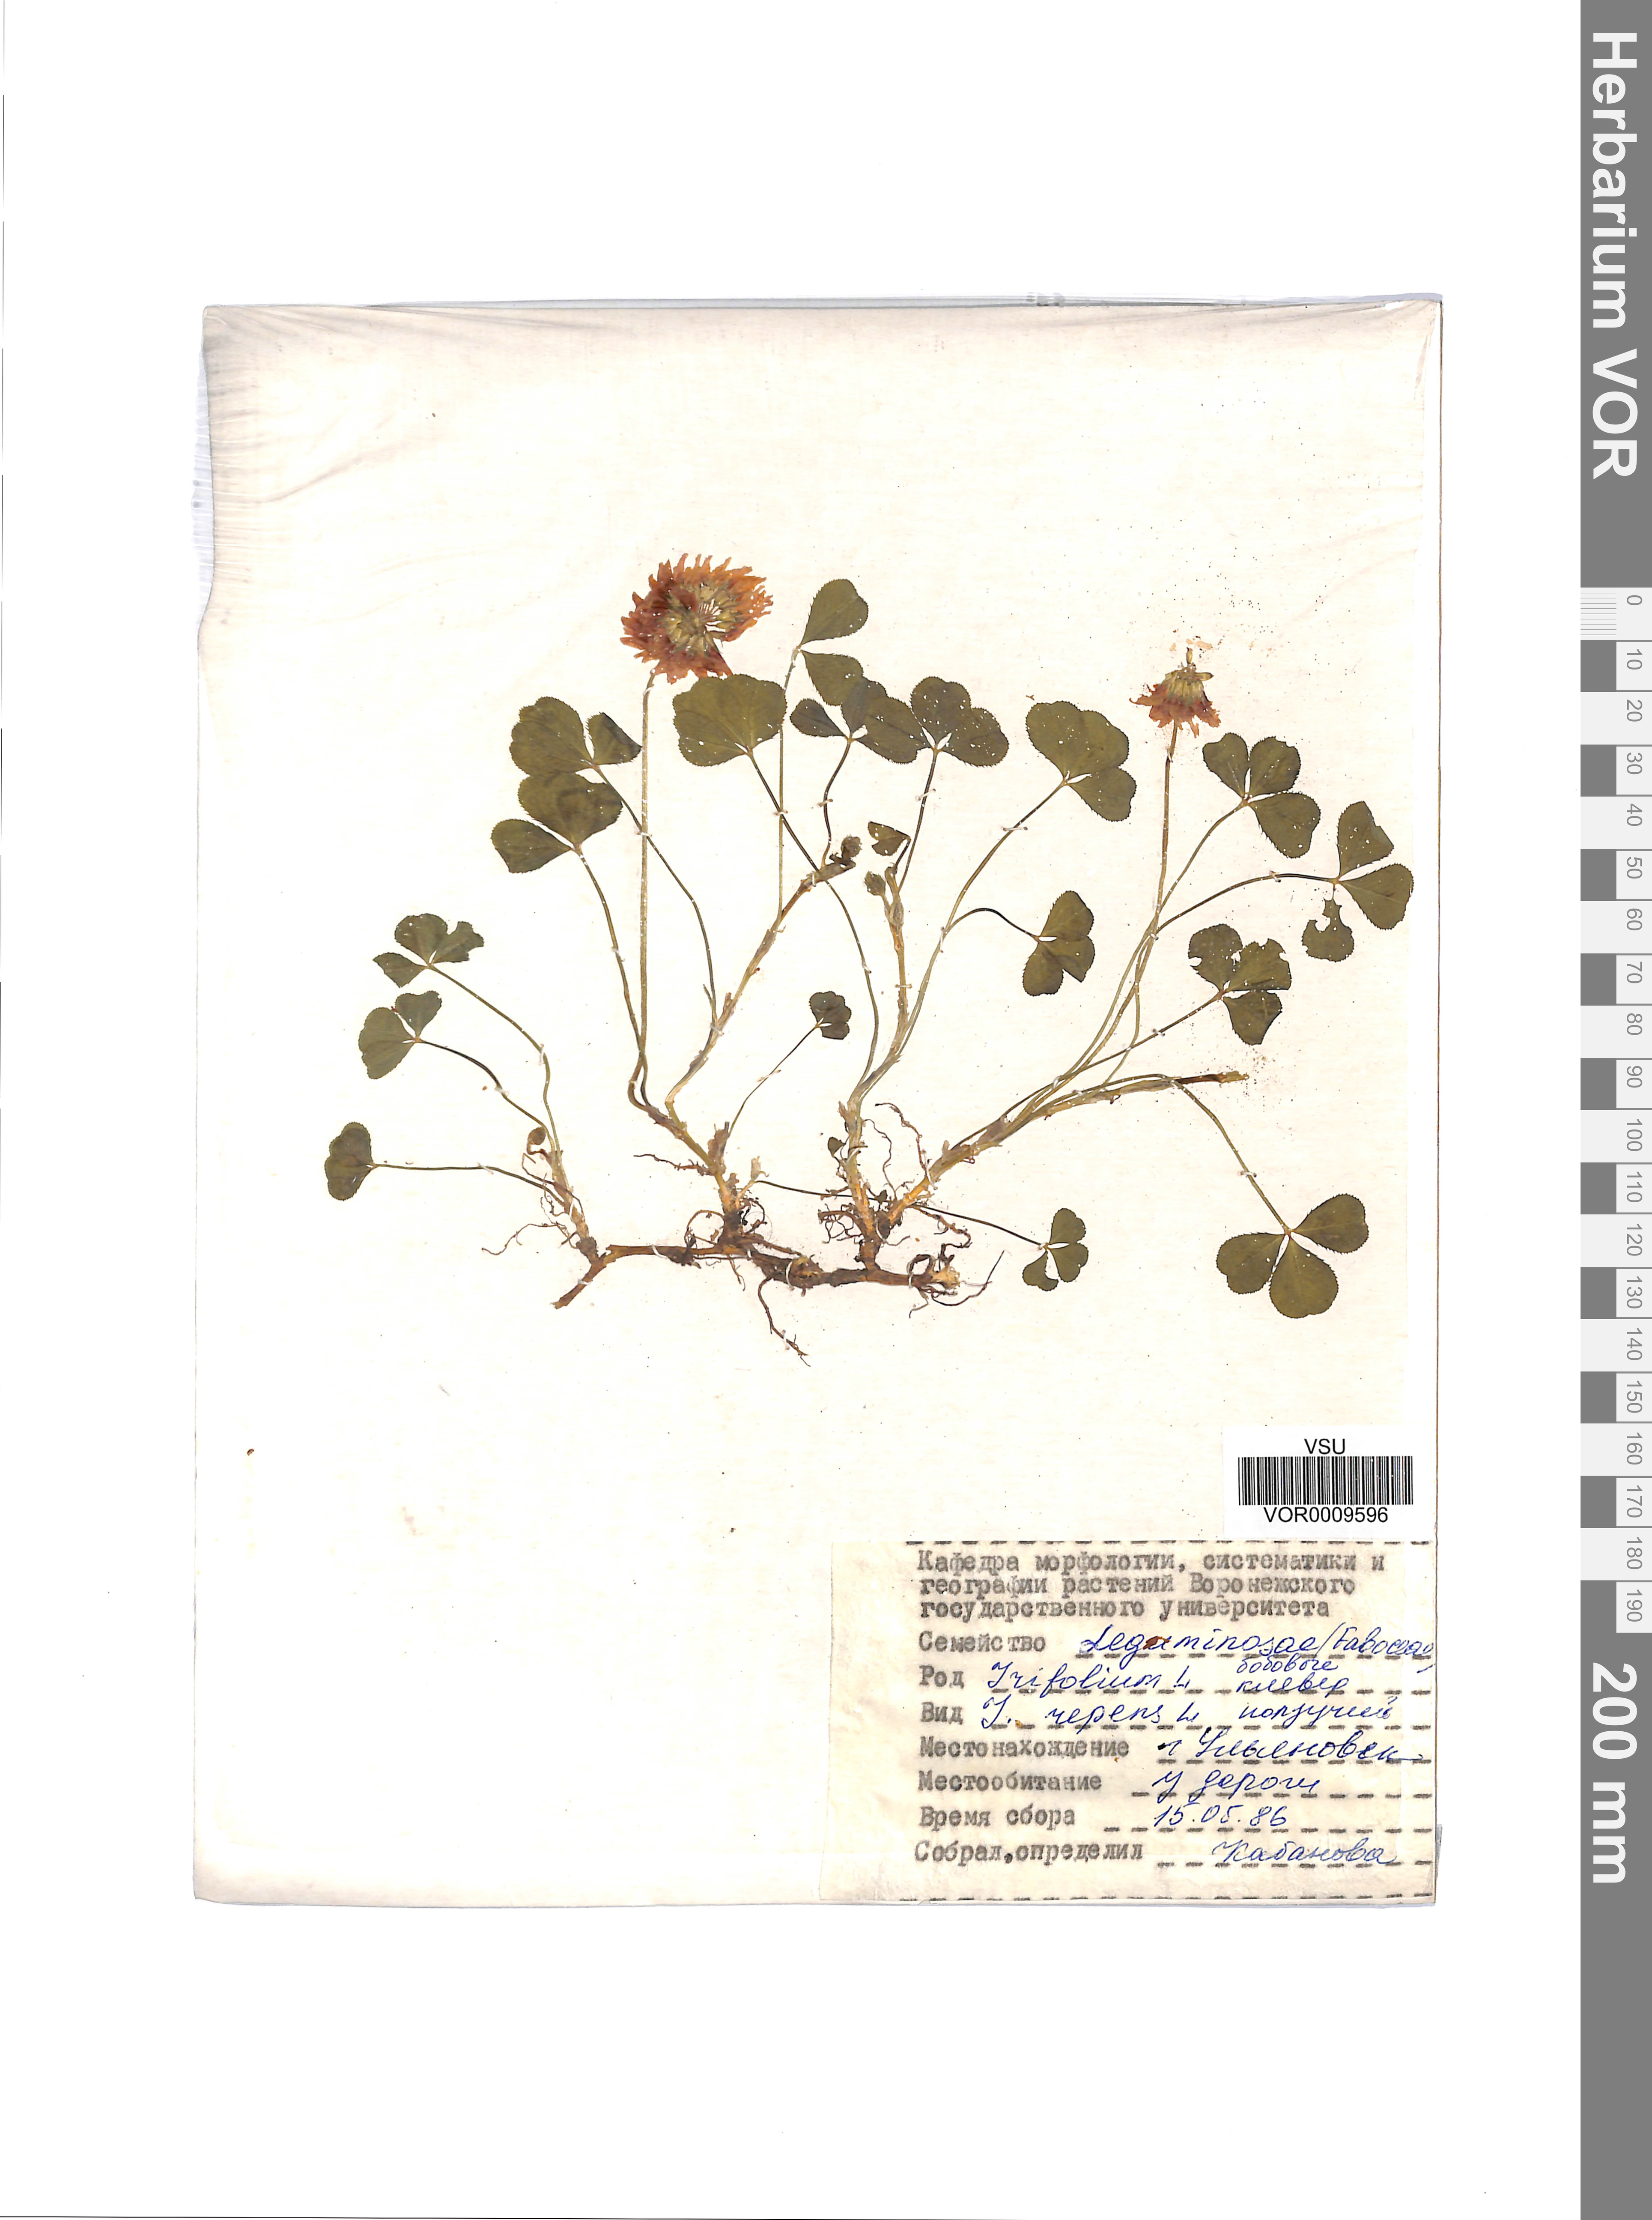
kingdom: Plantae
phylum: Tracheophyta
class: Magnoliopsida
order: Fabales
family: Fabaceae
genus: Trifolium
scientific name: Trifolium repens
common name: White clover
